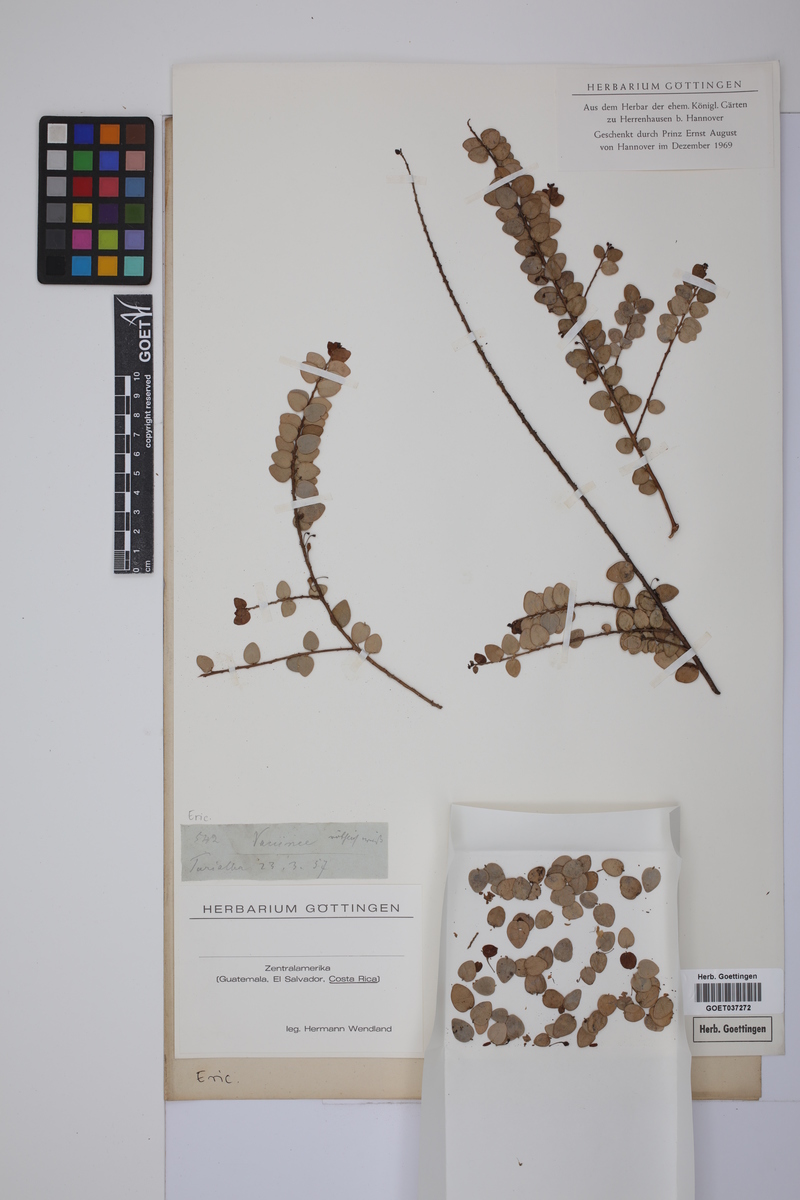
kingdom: Plantae
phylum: Tracheophyta
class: Magnoliopsida
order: Ericales
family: Ericaceae
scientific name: Ericaceae
